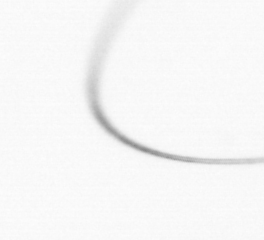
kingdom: Chromista
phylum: Ochrophyta
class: Bacillariophyceae
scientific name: Bacillariophyceae
